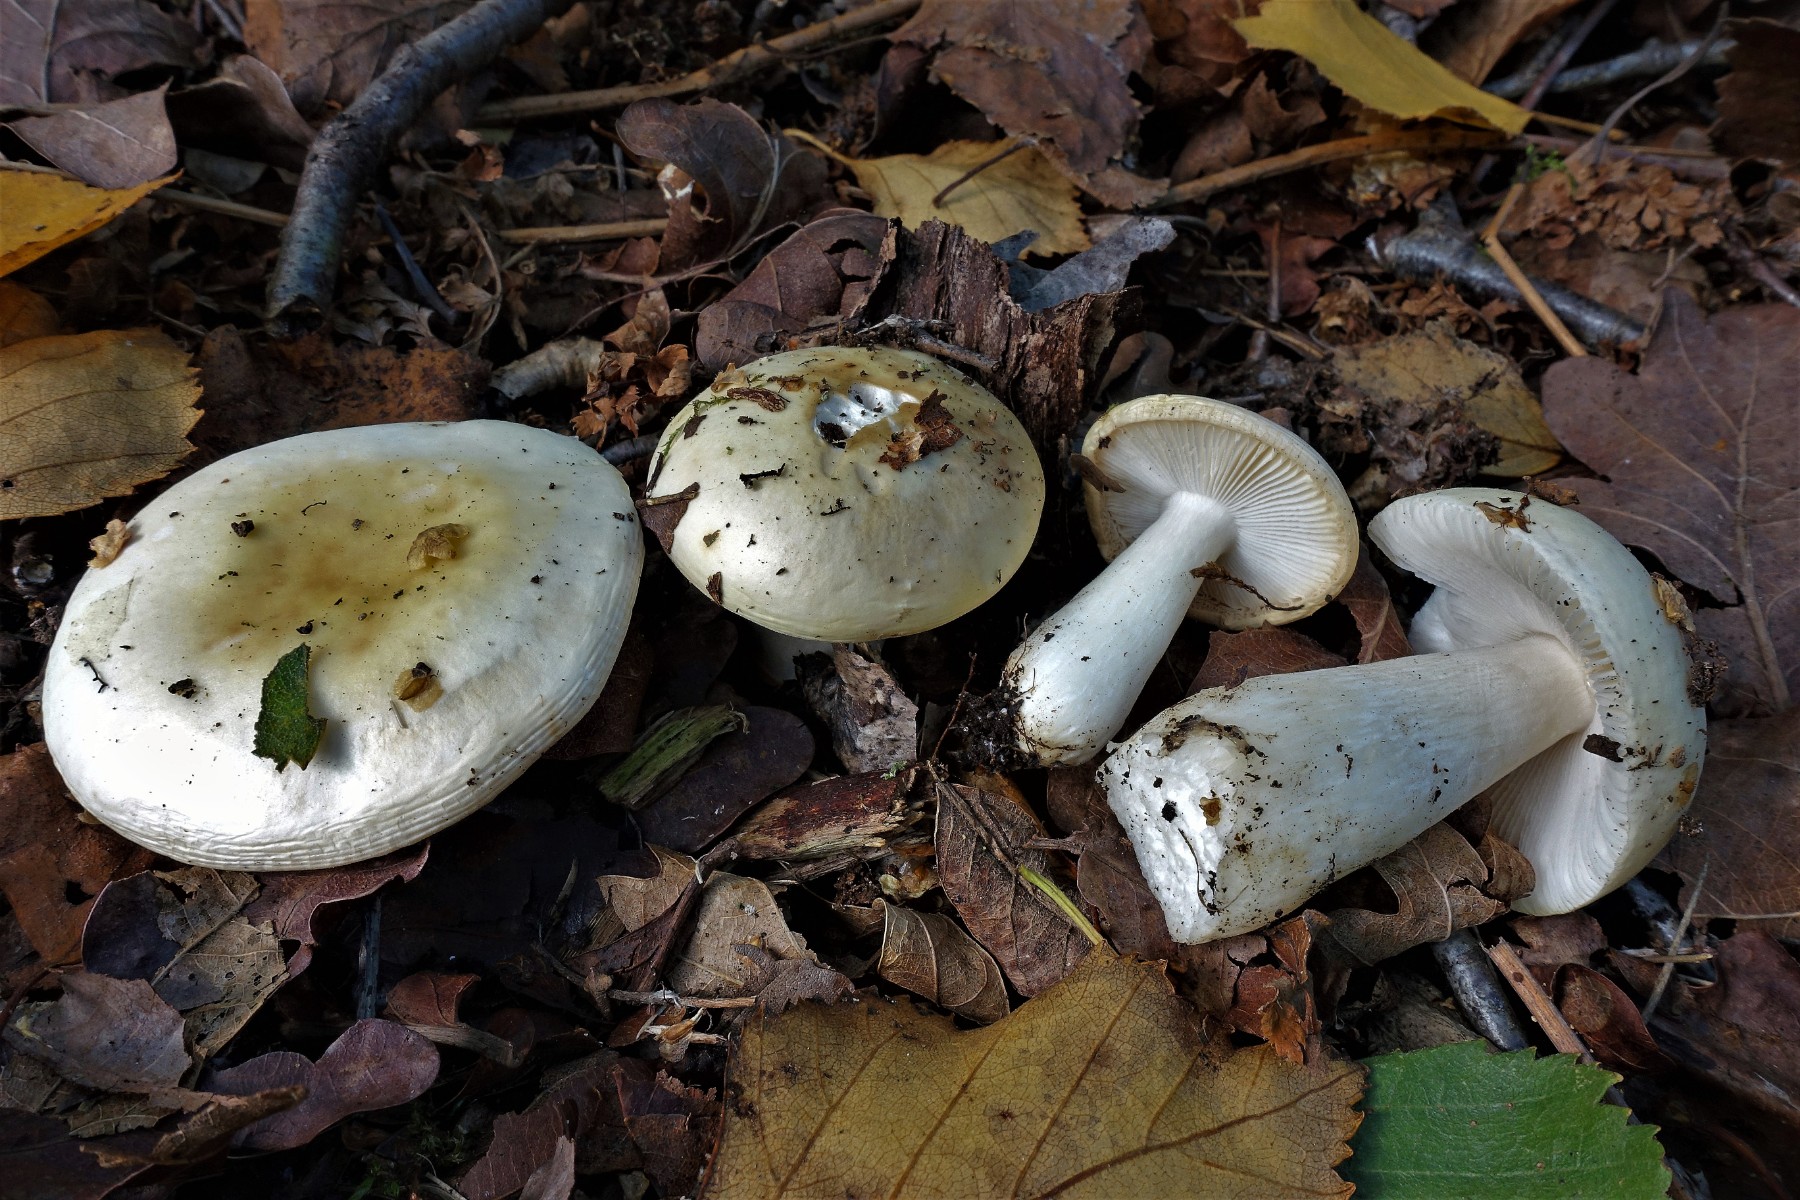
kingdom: Fungi
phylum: Basidiomycota
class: Agaricomycetes
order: Russulales
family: Russulaceae
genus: Russula
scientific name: Russula fragilis
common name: Fragile brittlegill
